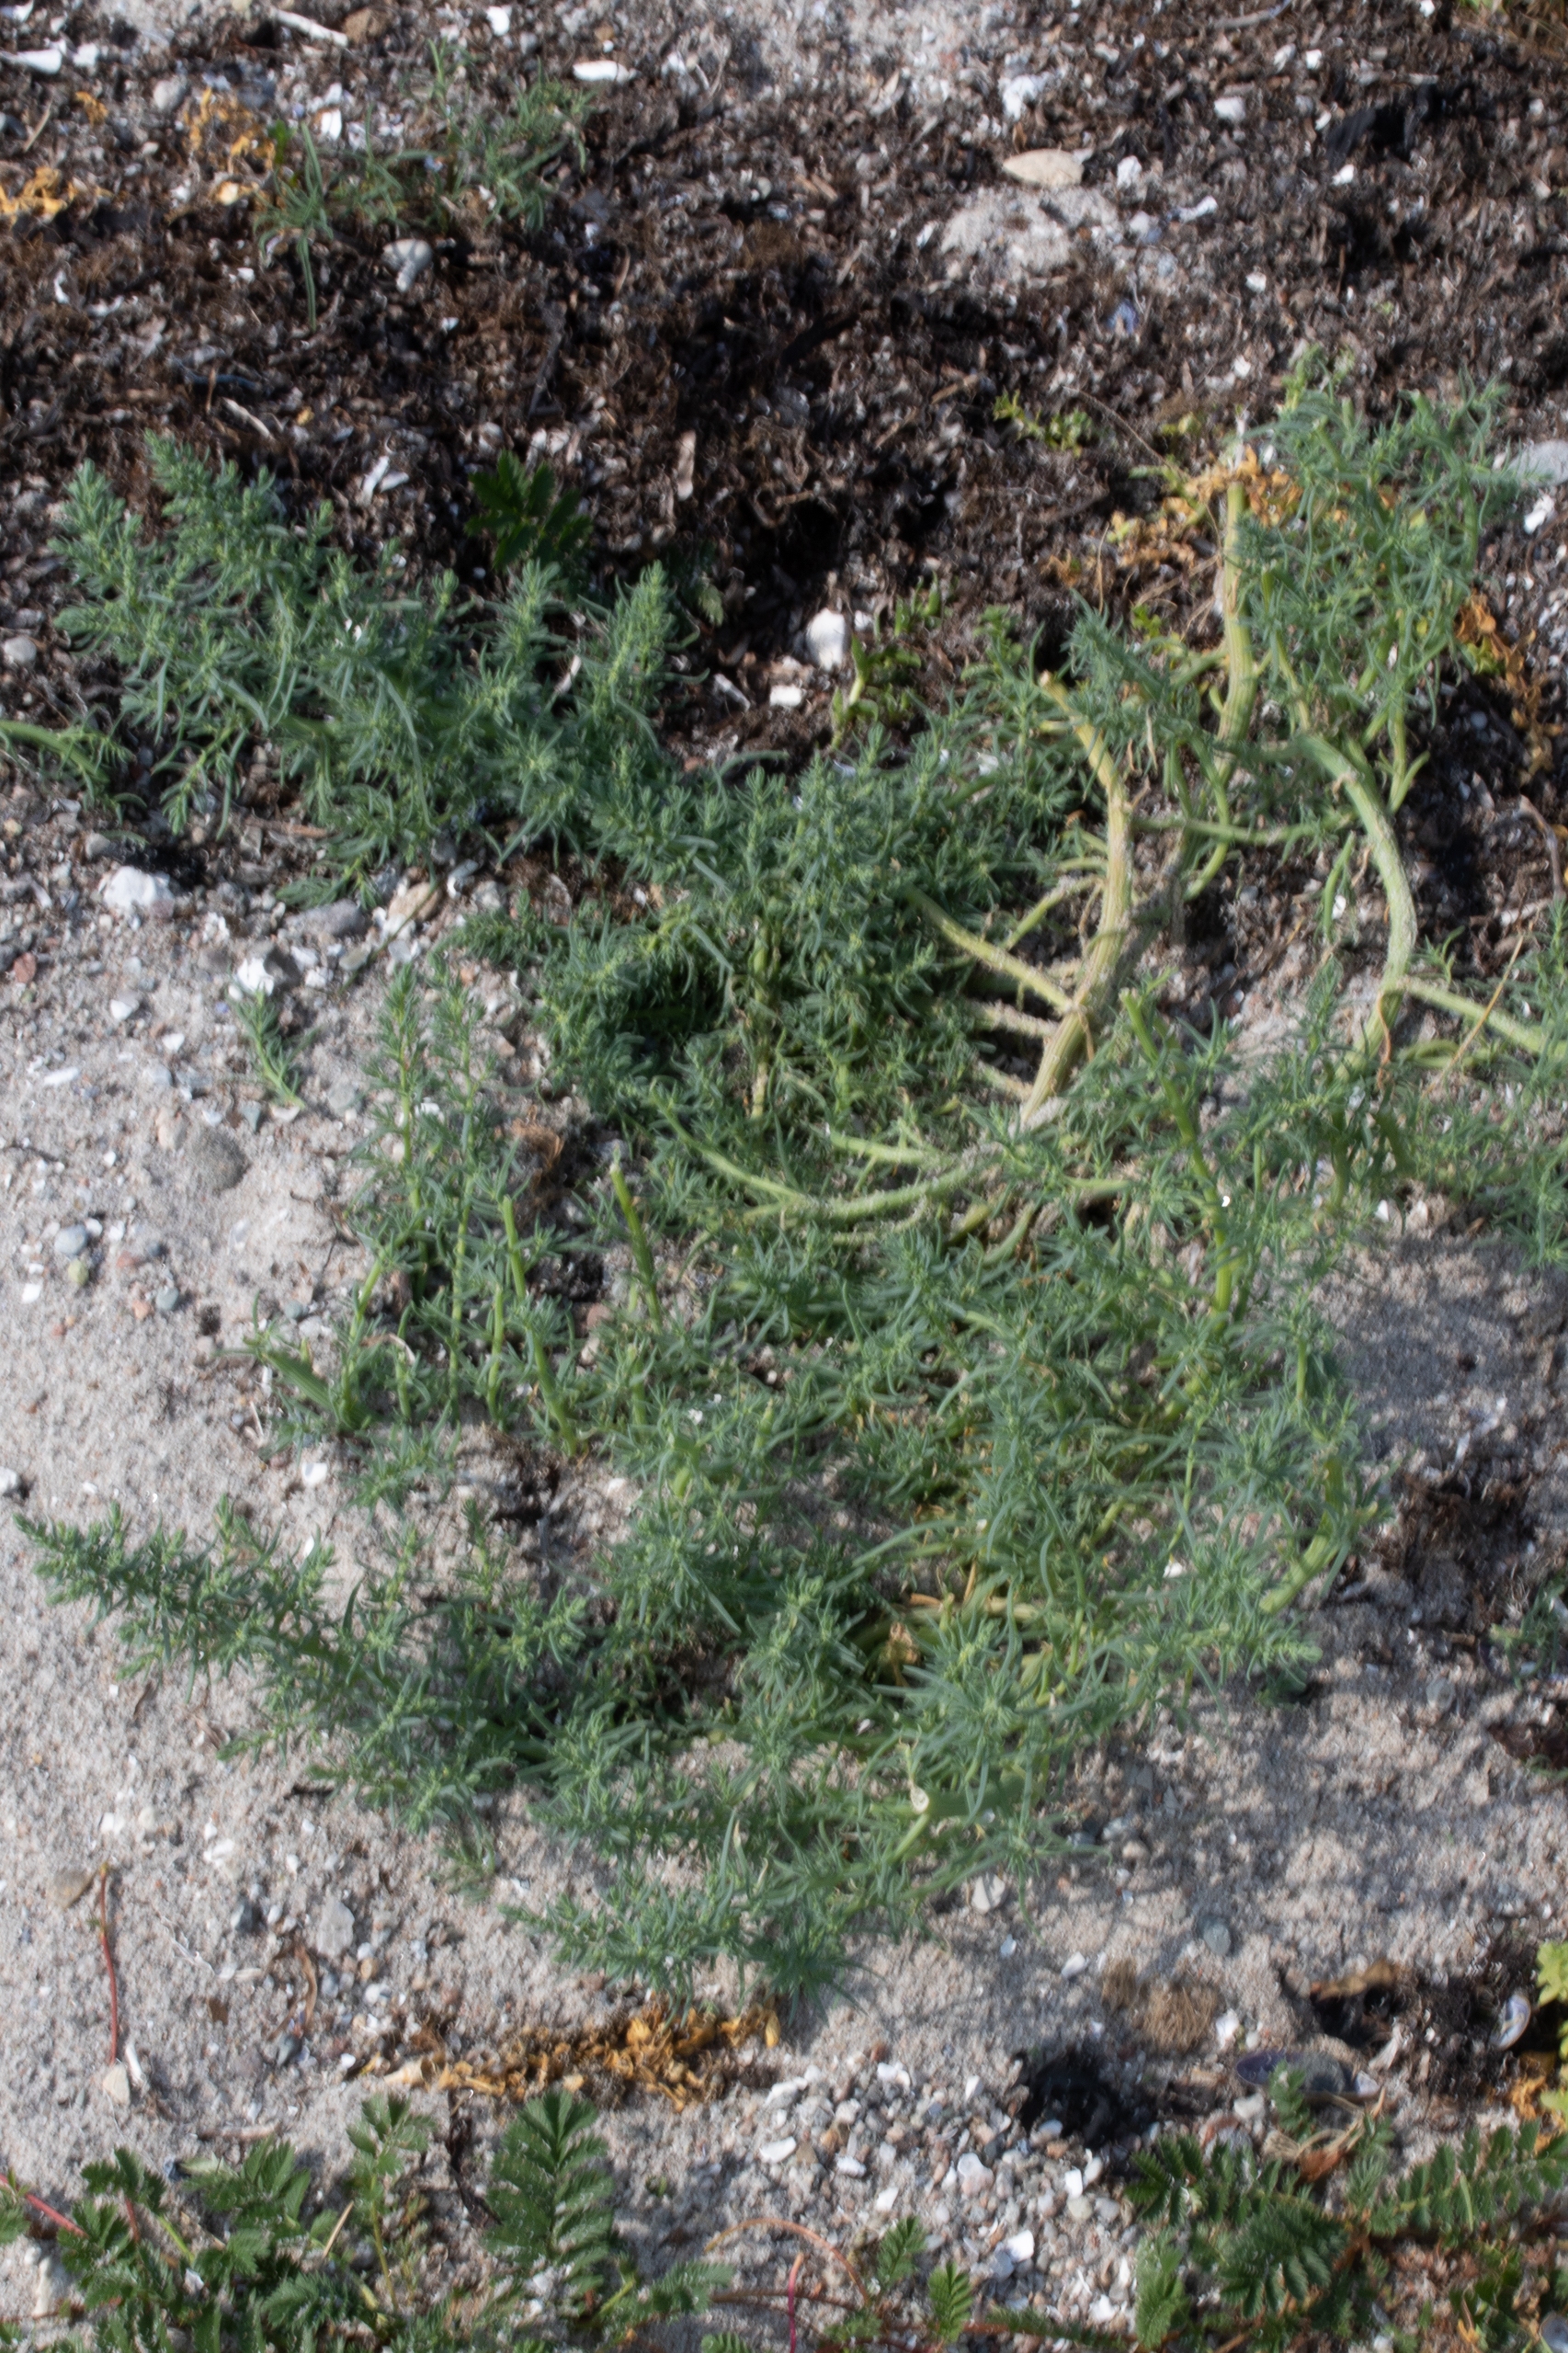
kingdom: Plantae
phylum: Tracheophyta
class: Magnoliopsida
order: Caryophyllales
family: Amaranthaceae
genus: Salsola
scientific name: Salsola kali
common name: Sodaurt
